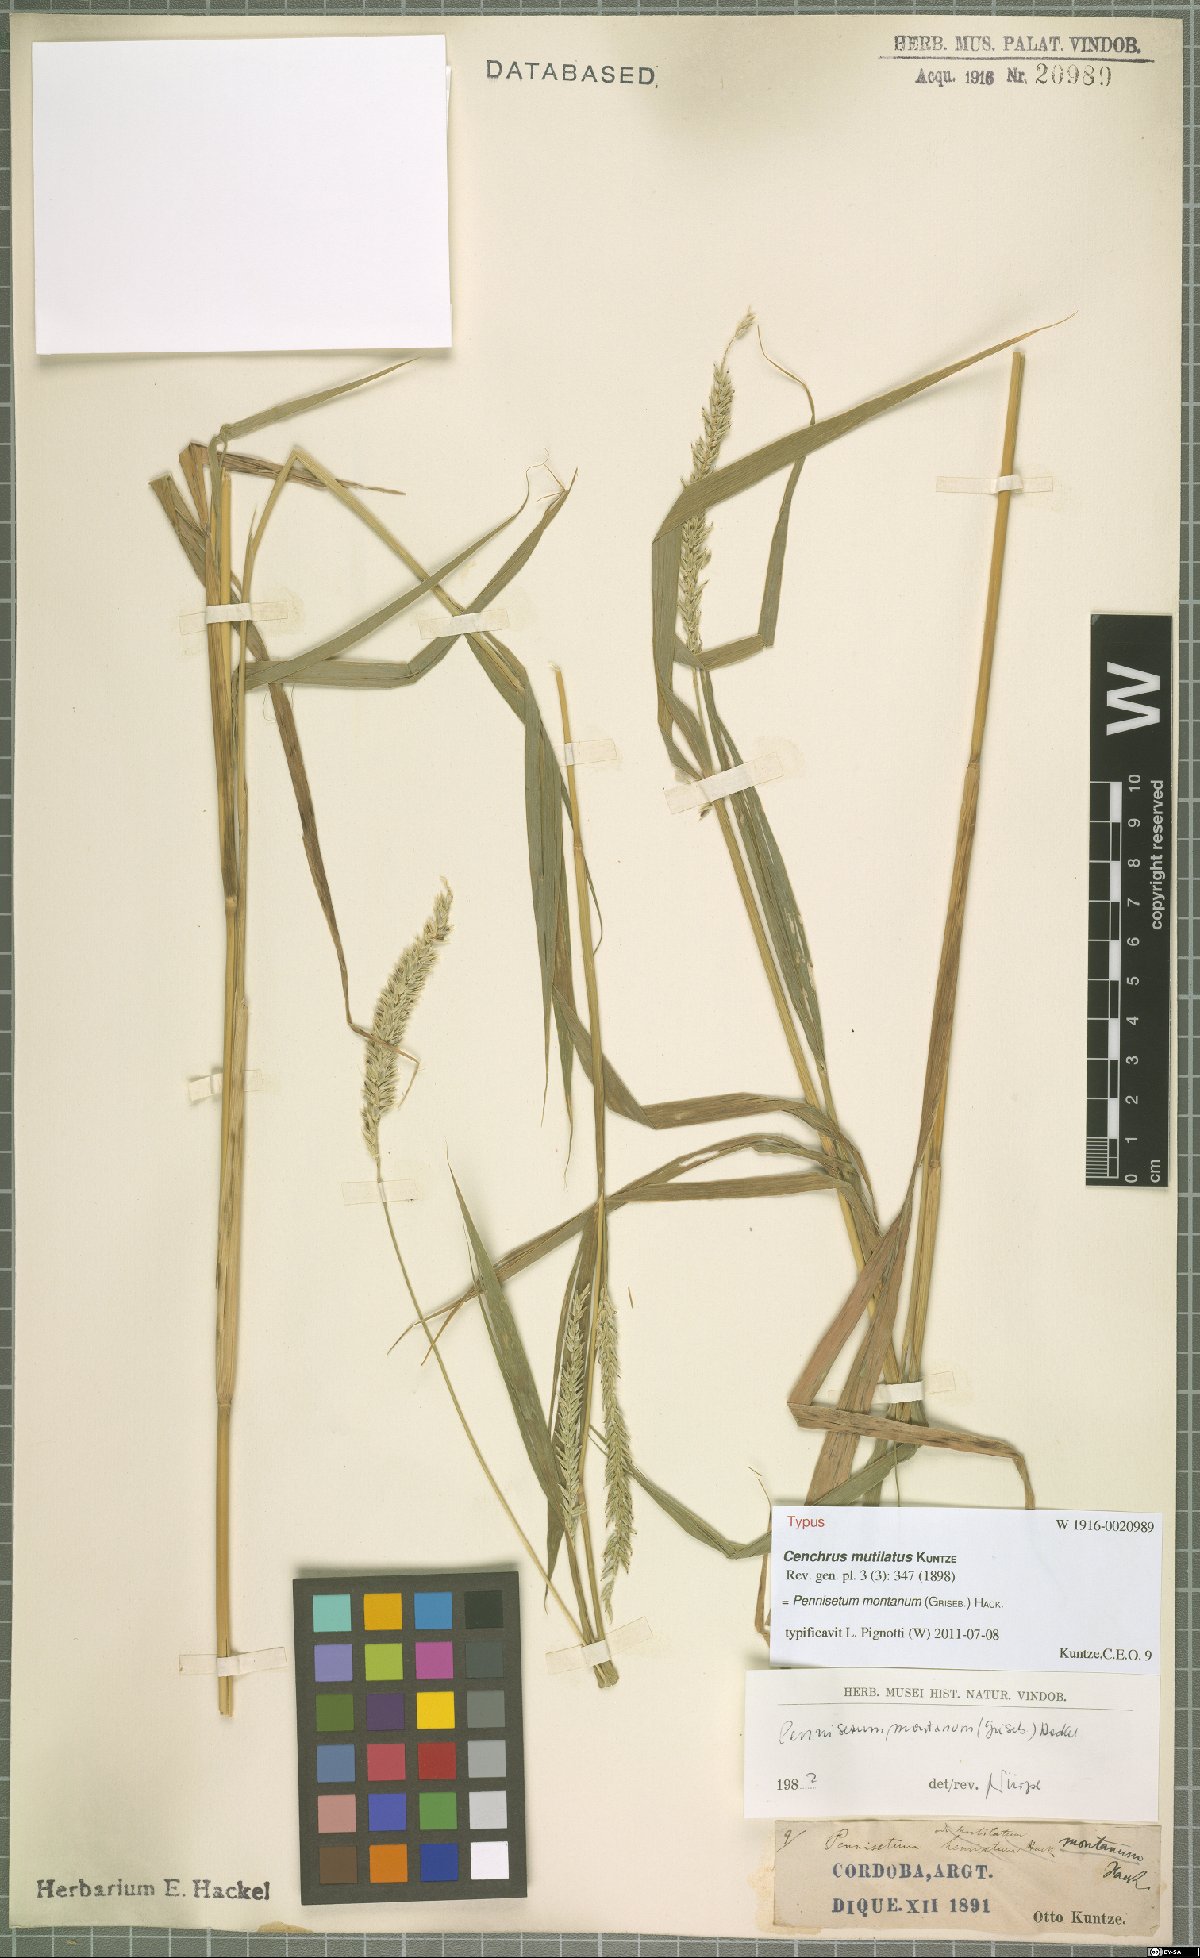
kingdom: Plantae
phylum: Tracheophyta
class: Liliopsida
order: Poales
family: Poaceae
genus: Cenchrus
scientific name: Cenchrus mutilatus
